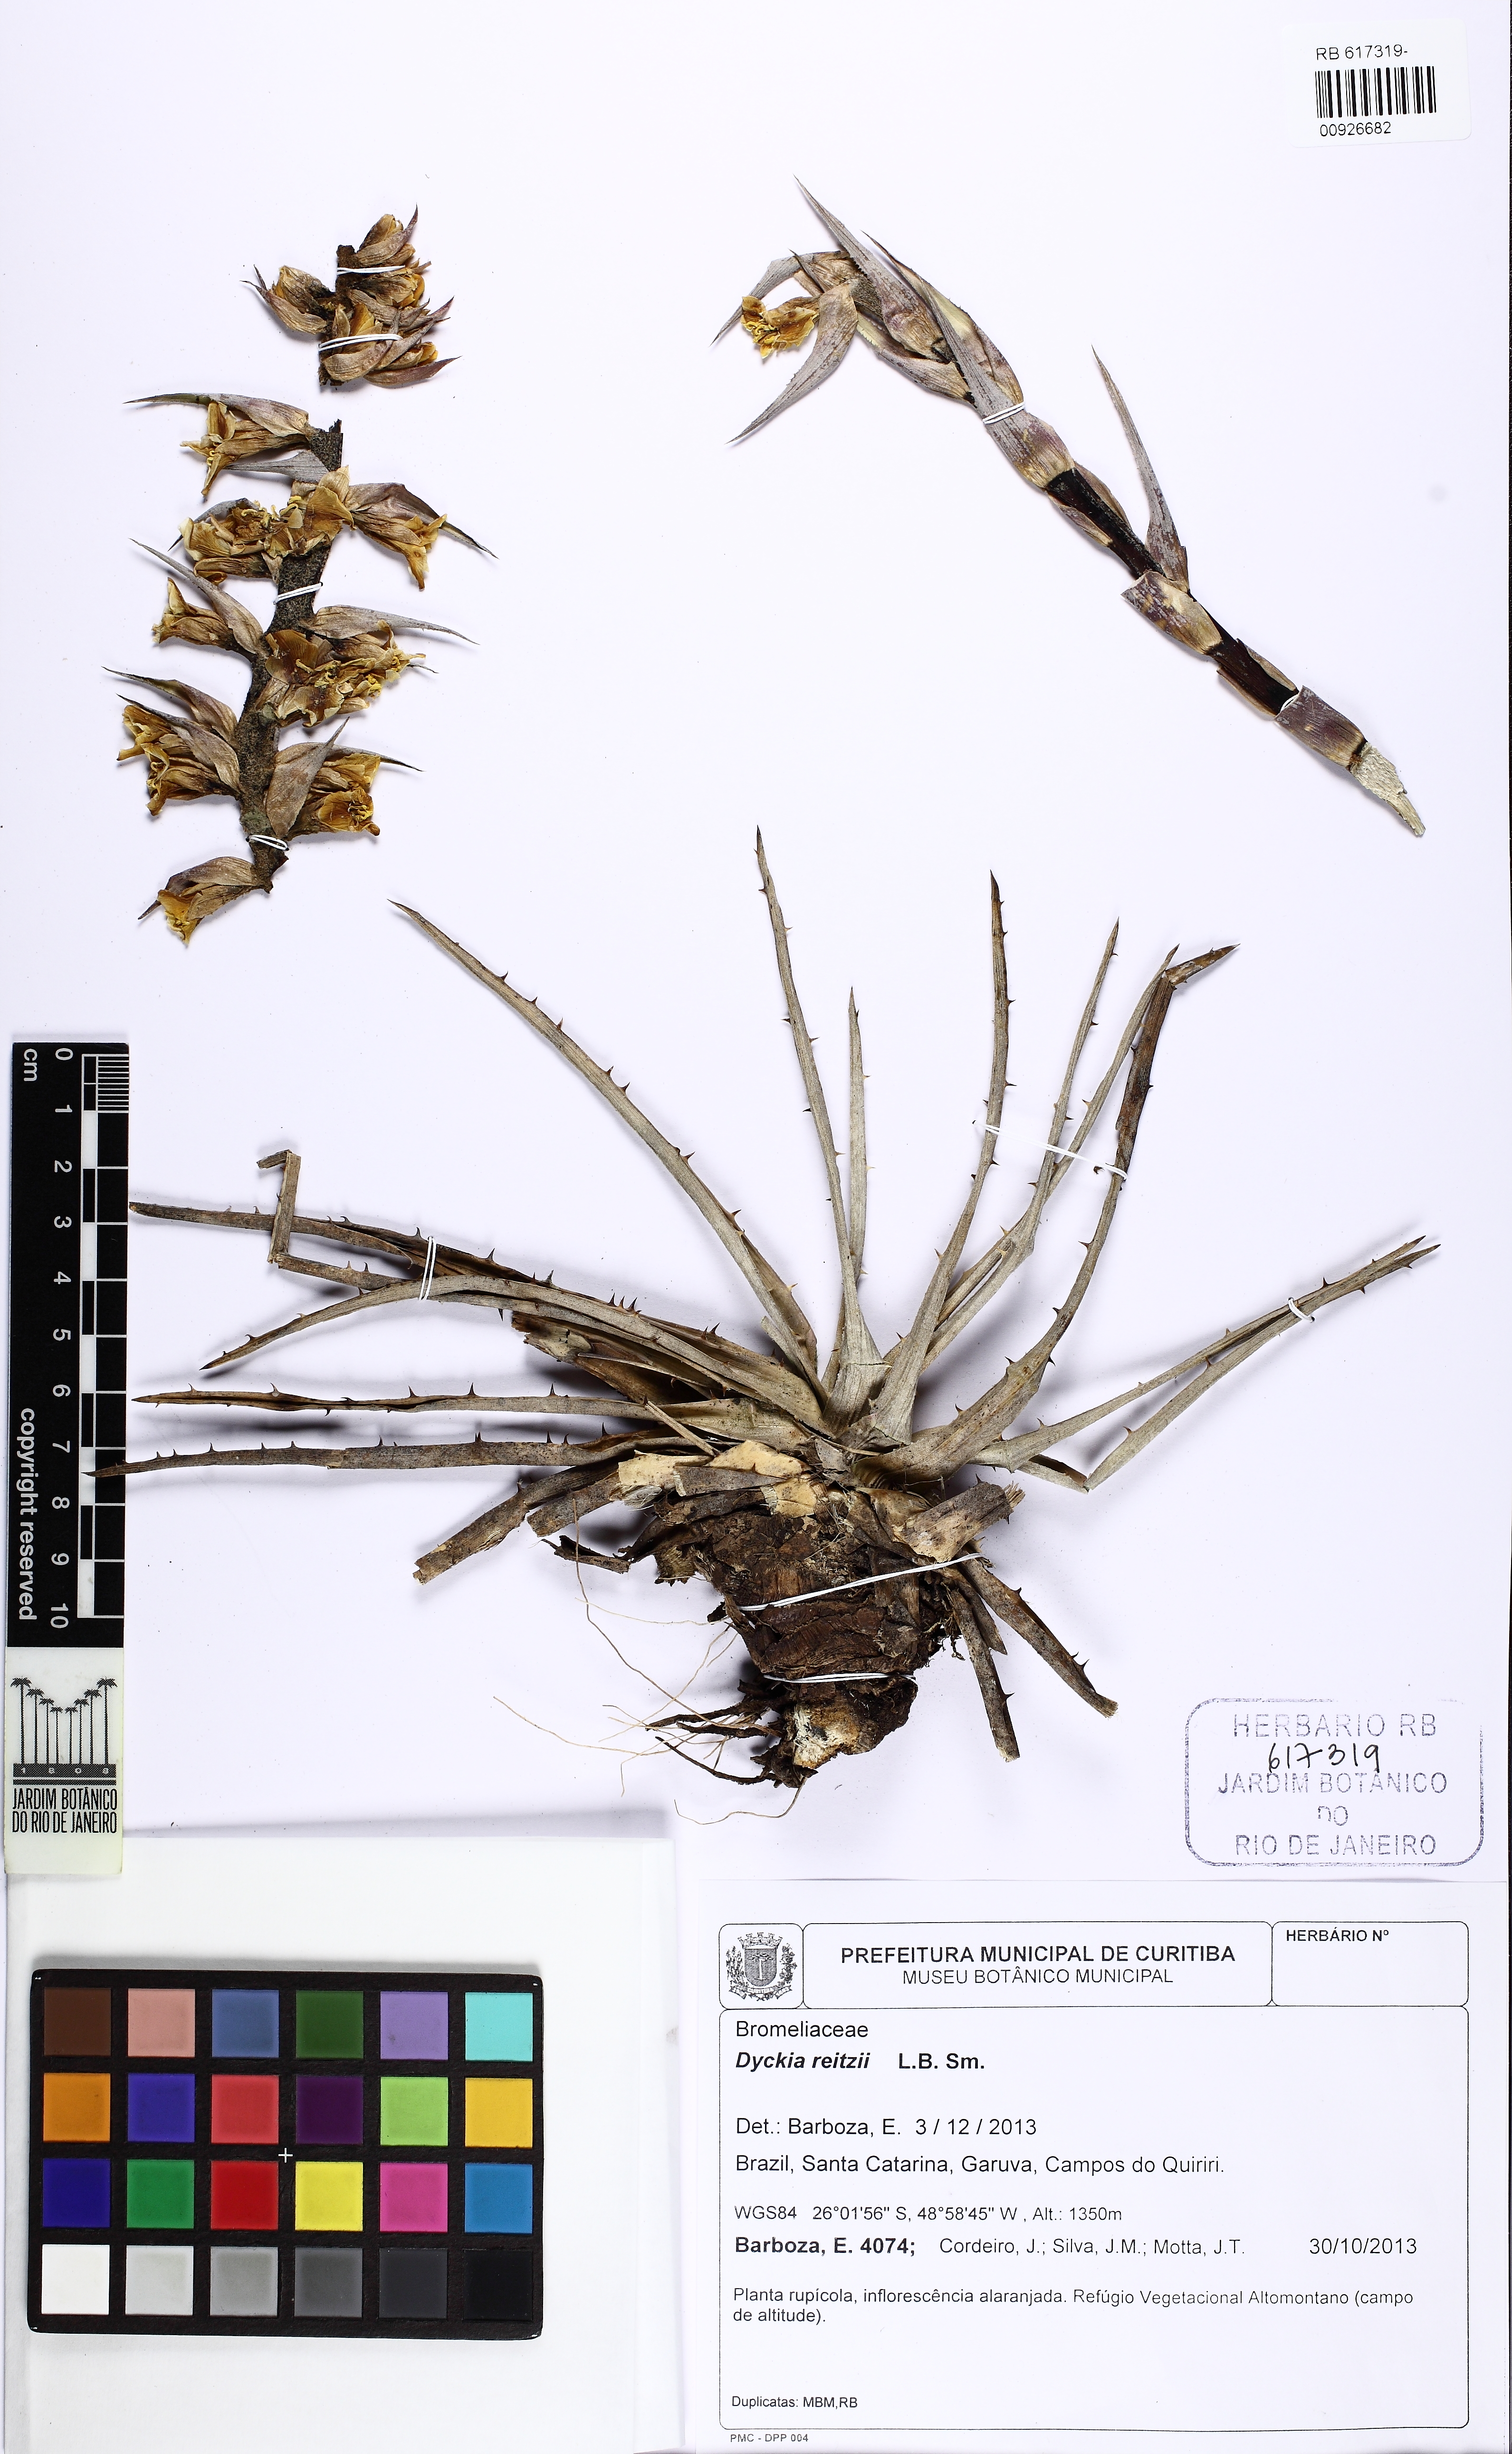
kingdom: Plantae
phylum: Tracheophyta
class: Liliopsida
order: Poales
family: Bromeliaceae
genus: Dyckia
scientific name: Dyckia monticola
